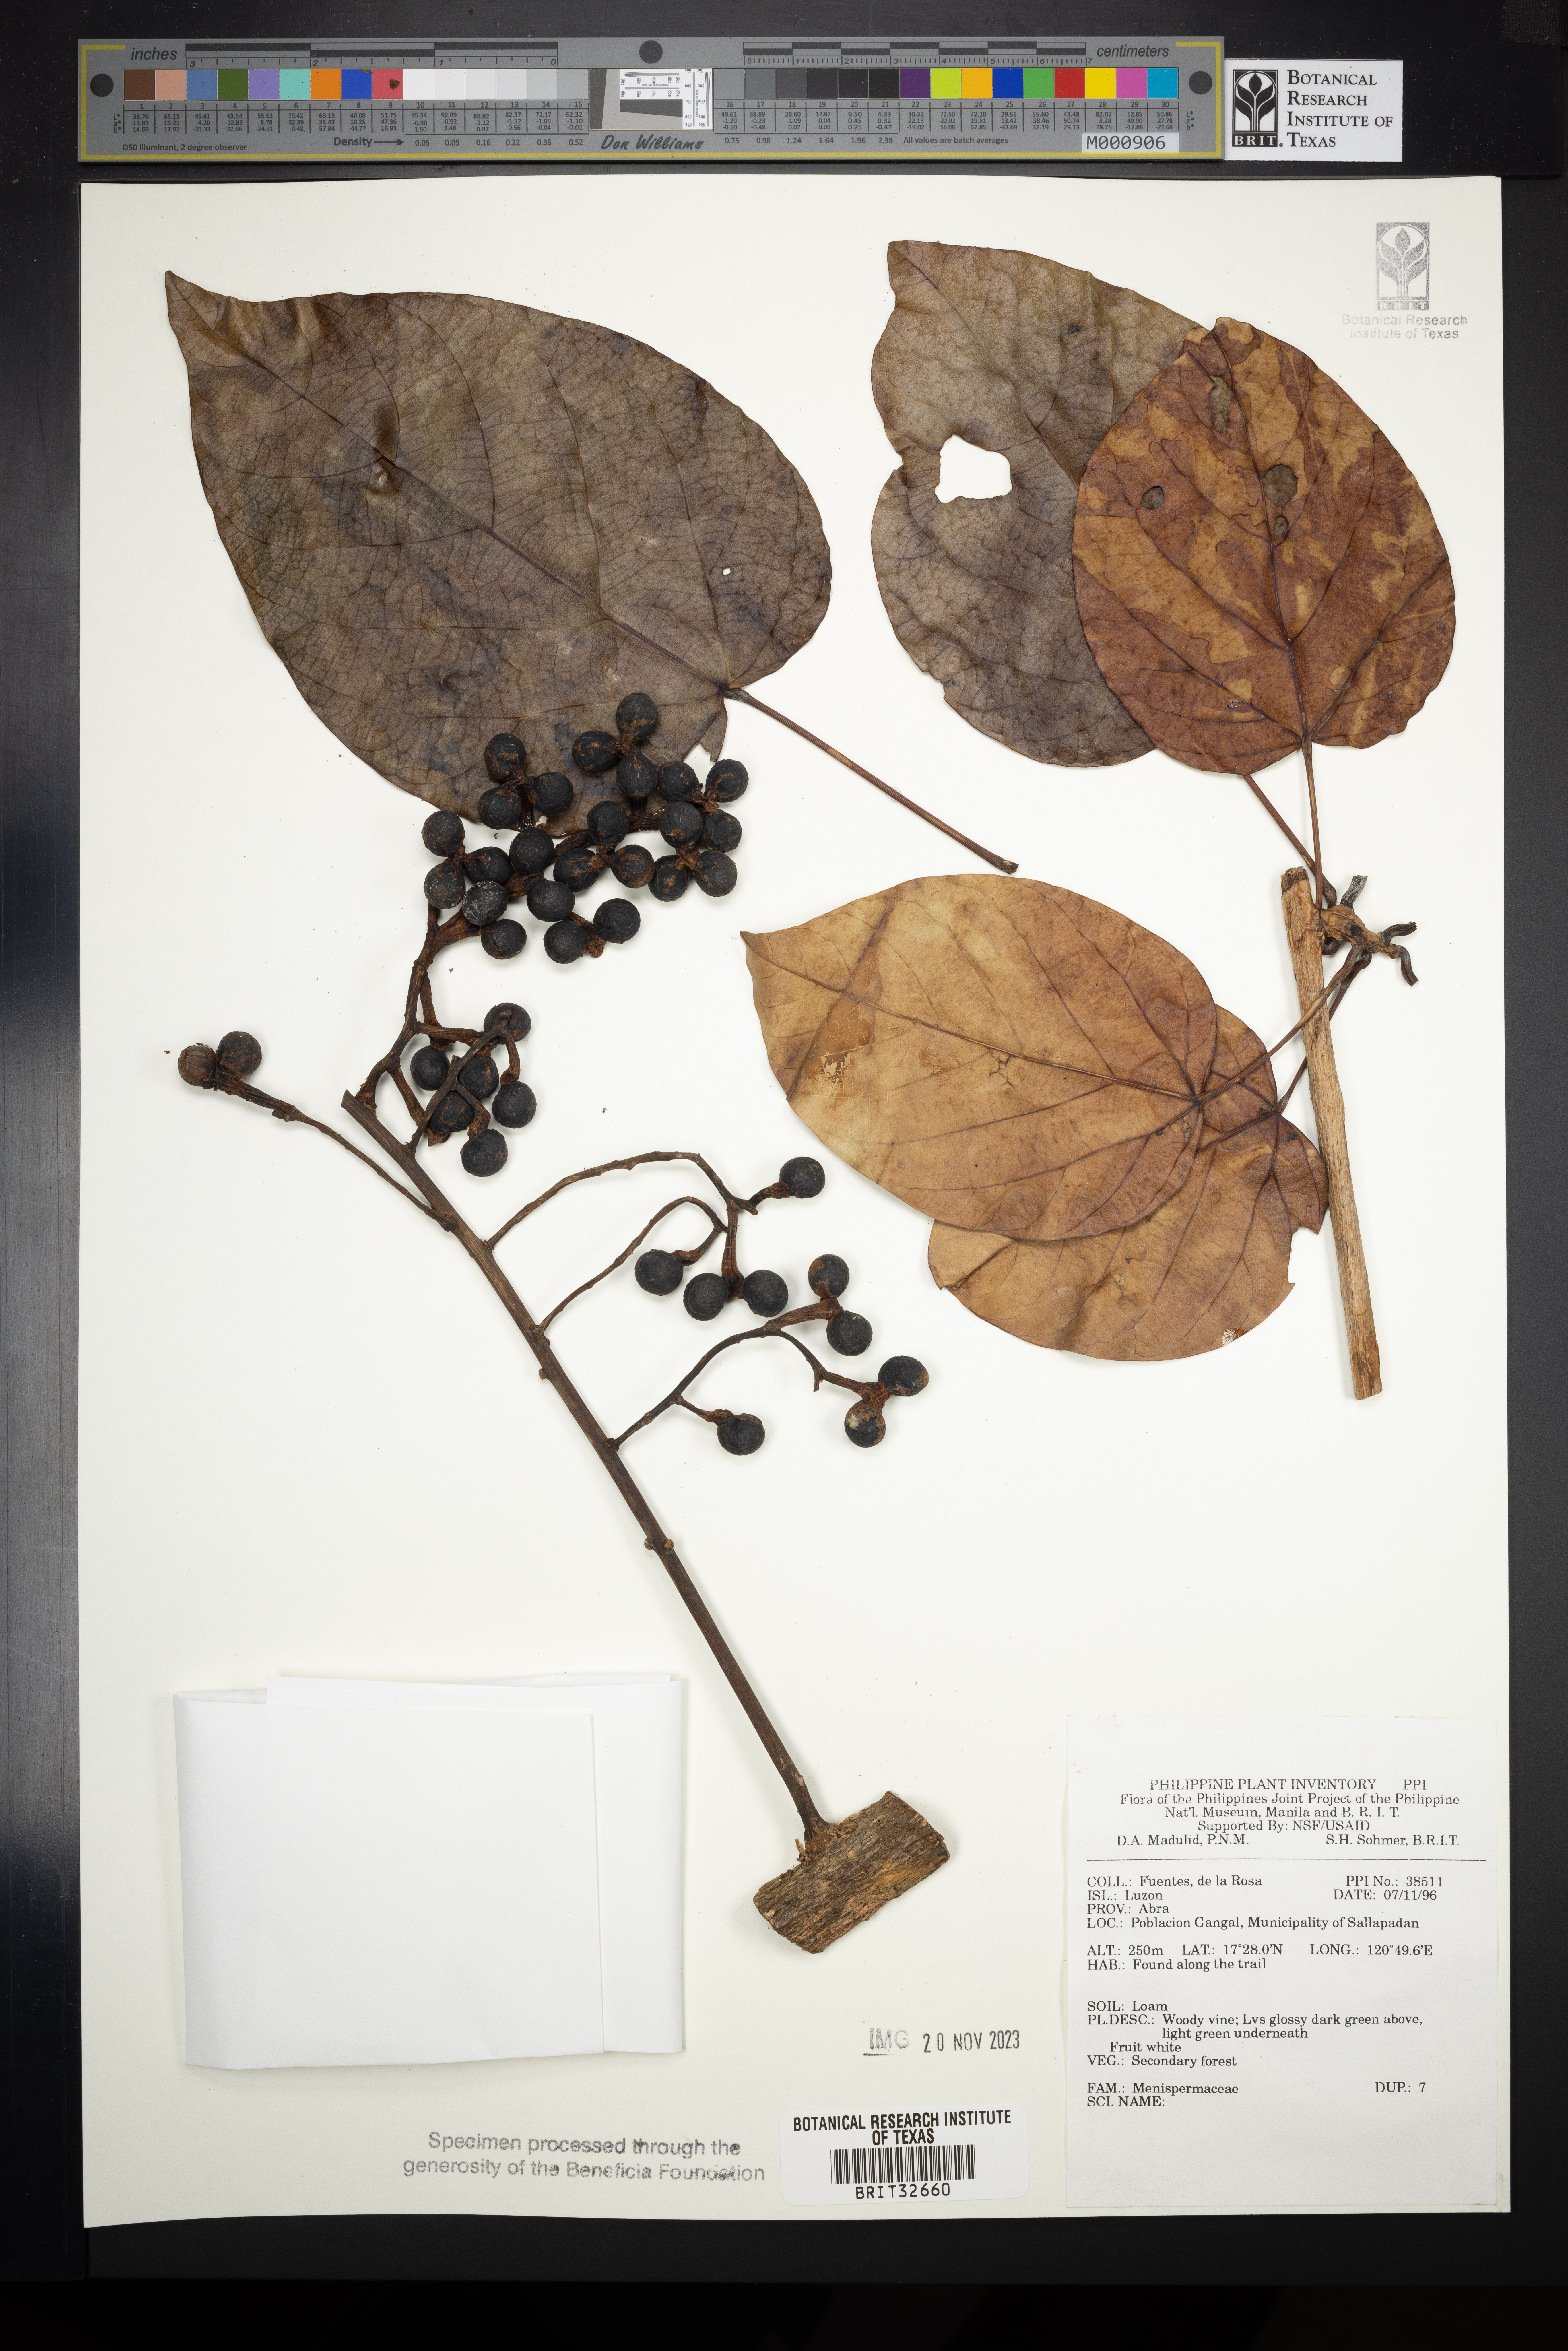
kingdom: Plantae
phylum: Tracheophyta
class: Magnoliopsida
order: Ranunculales
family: Menispermaceae
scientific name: Menispermaceae
